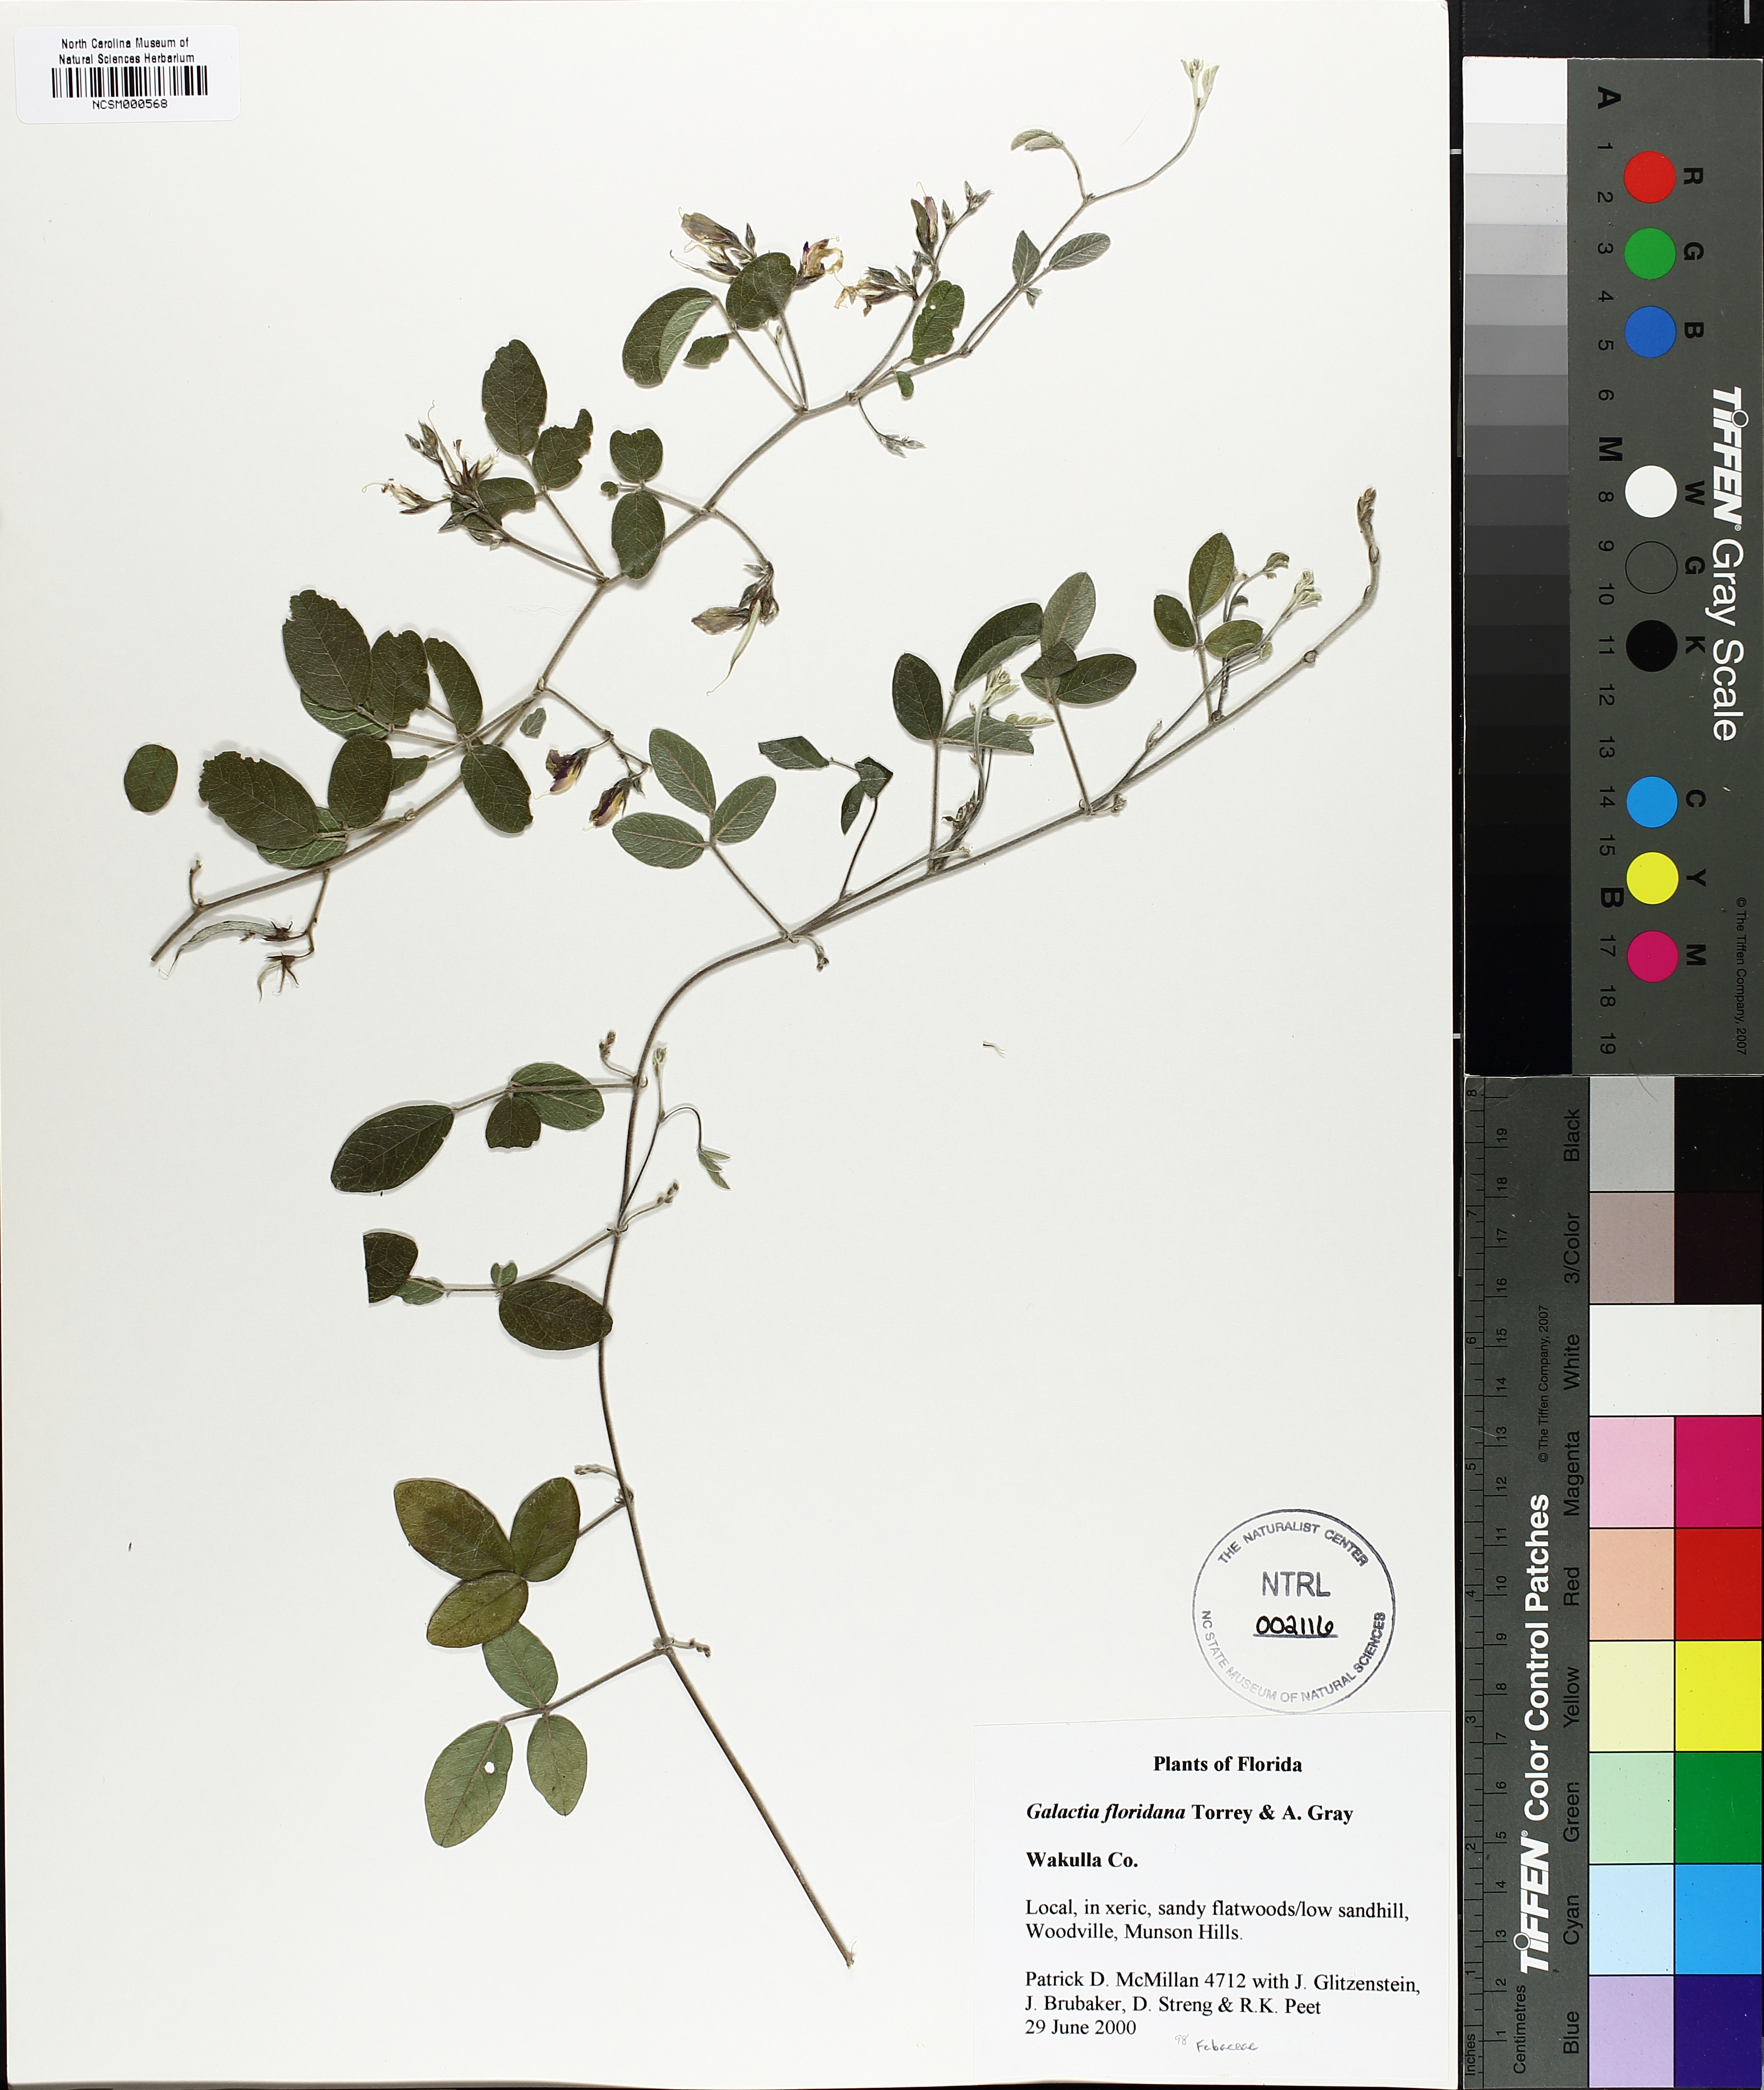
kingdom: Plantae
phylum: Tracheophyta
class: Magnoliopsida
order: Fabales
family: Fabaceae
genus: Galactia
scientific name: Galactia floridana
